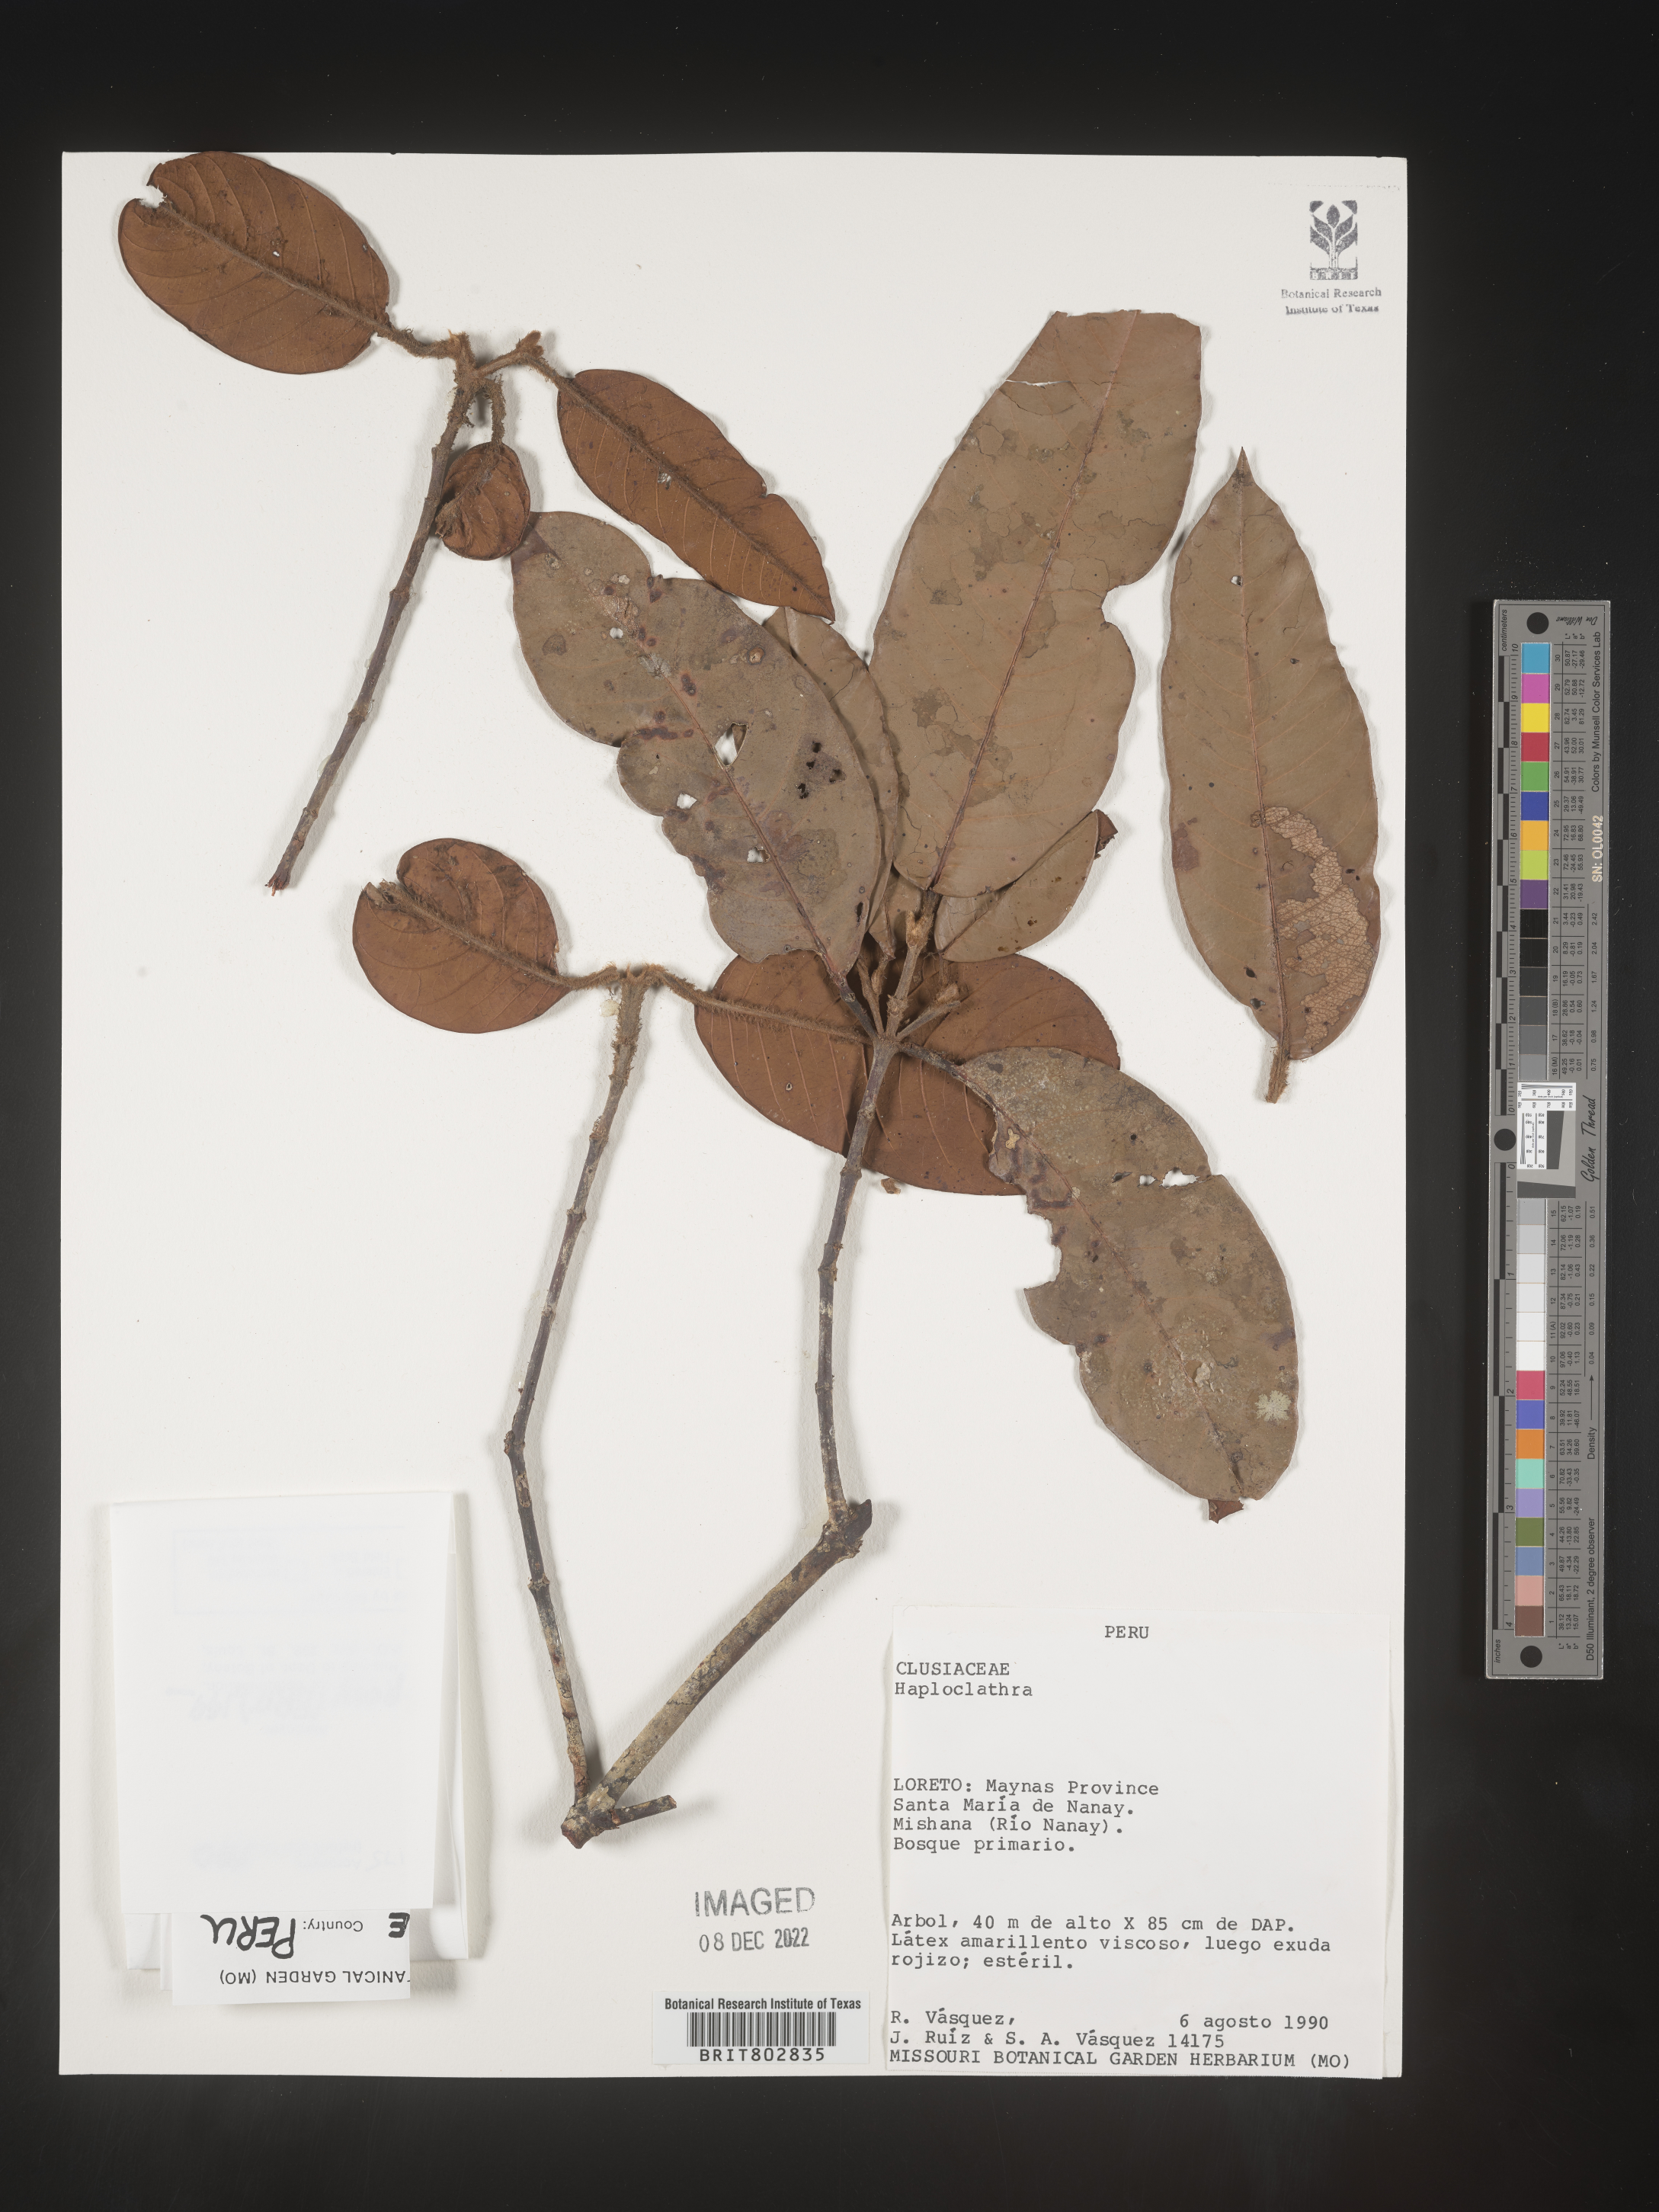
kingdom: Plantae
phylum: Tracheophyta
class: Magnoliopsida
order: Malpighiales
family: Calophyllaceae
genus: Haploclathra
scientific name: Haploclathra
